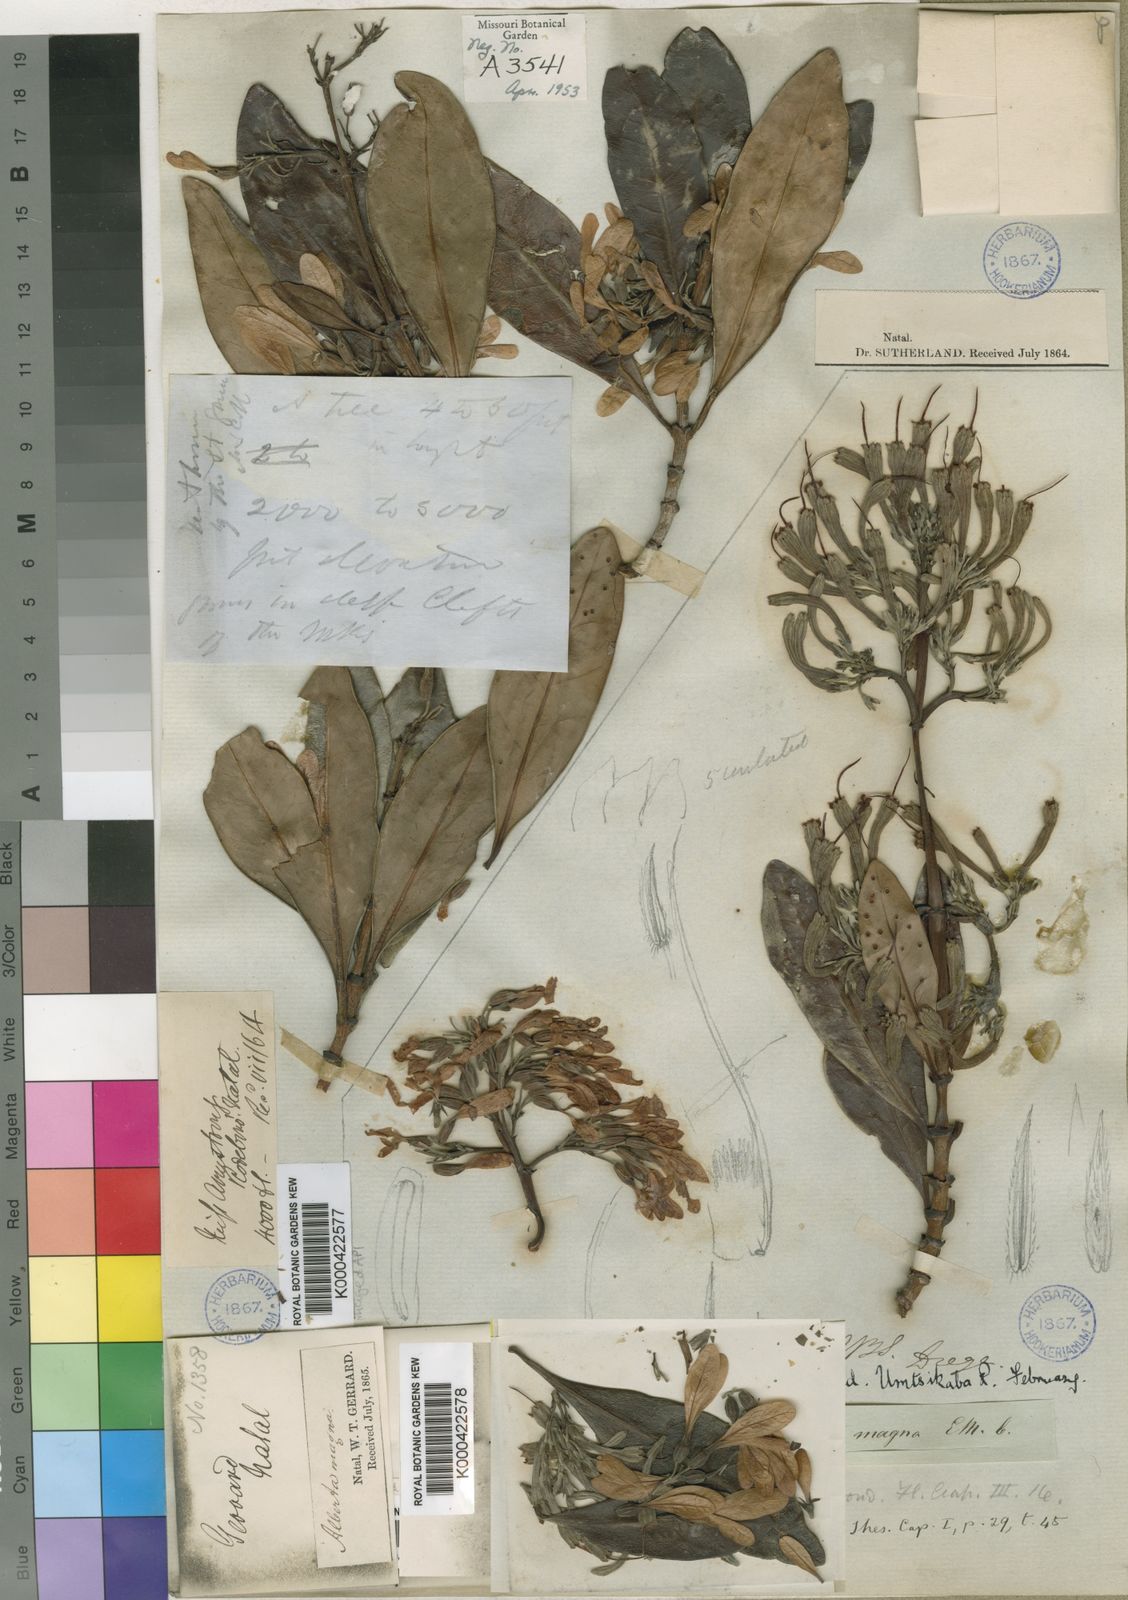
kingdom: Plantae
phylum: Tracheophyta
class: Magnoliopsida
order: Gentianales
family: Rubiaceae
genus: Alberta
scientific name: Alberta magna
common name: Magnificent-flame
